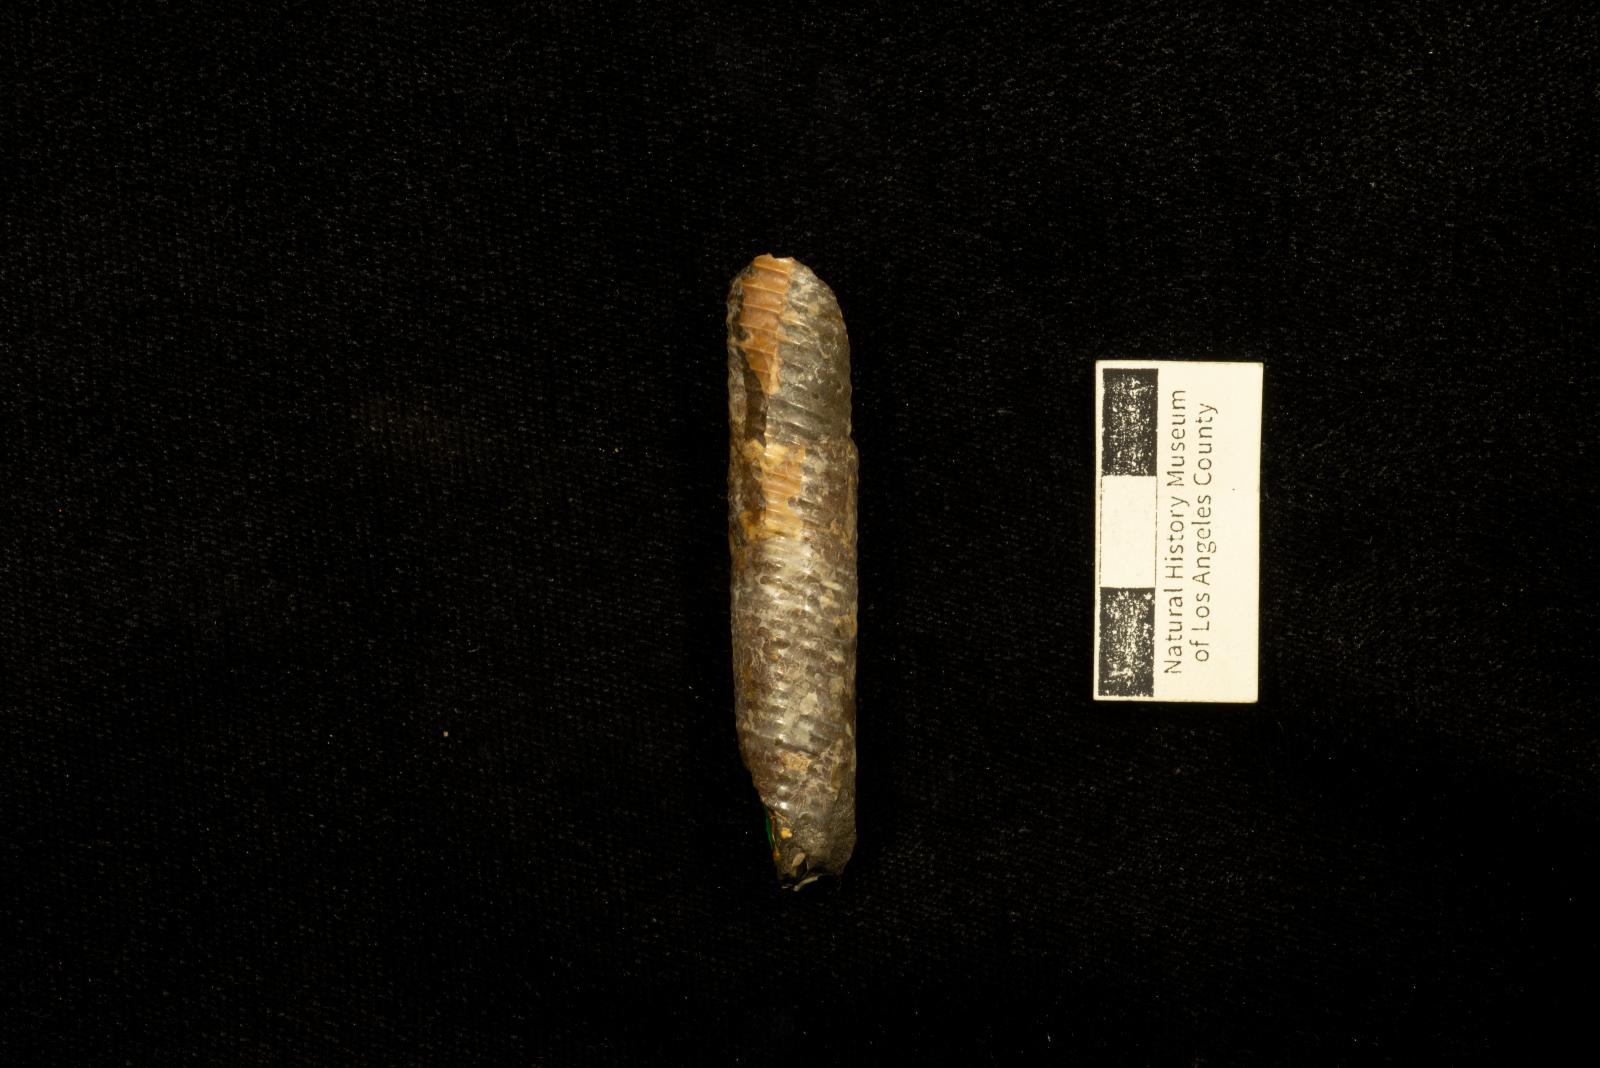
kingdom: Animalia
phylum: Mollusca
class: Cephalopoda
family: Diplomoceratidae
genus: Ryugasella
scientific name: Ryugasella ryugasensis
